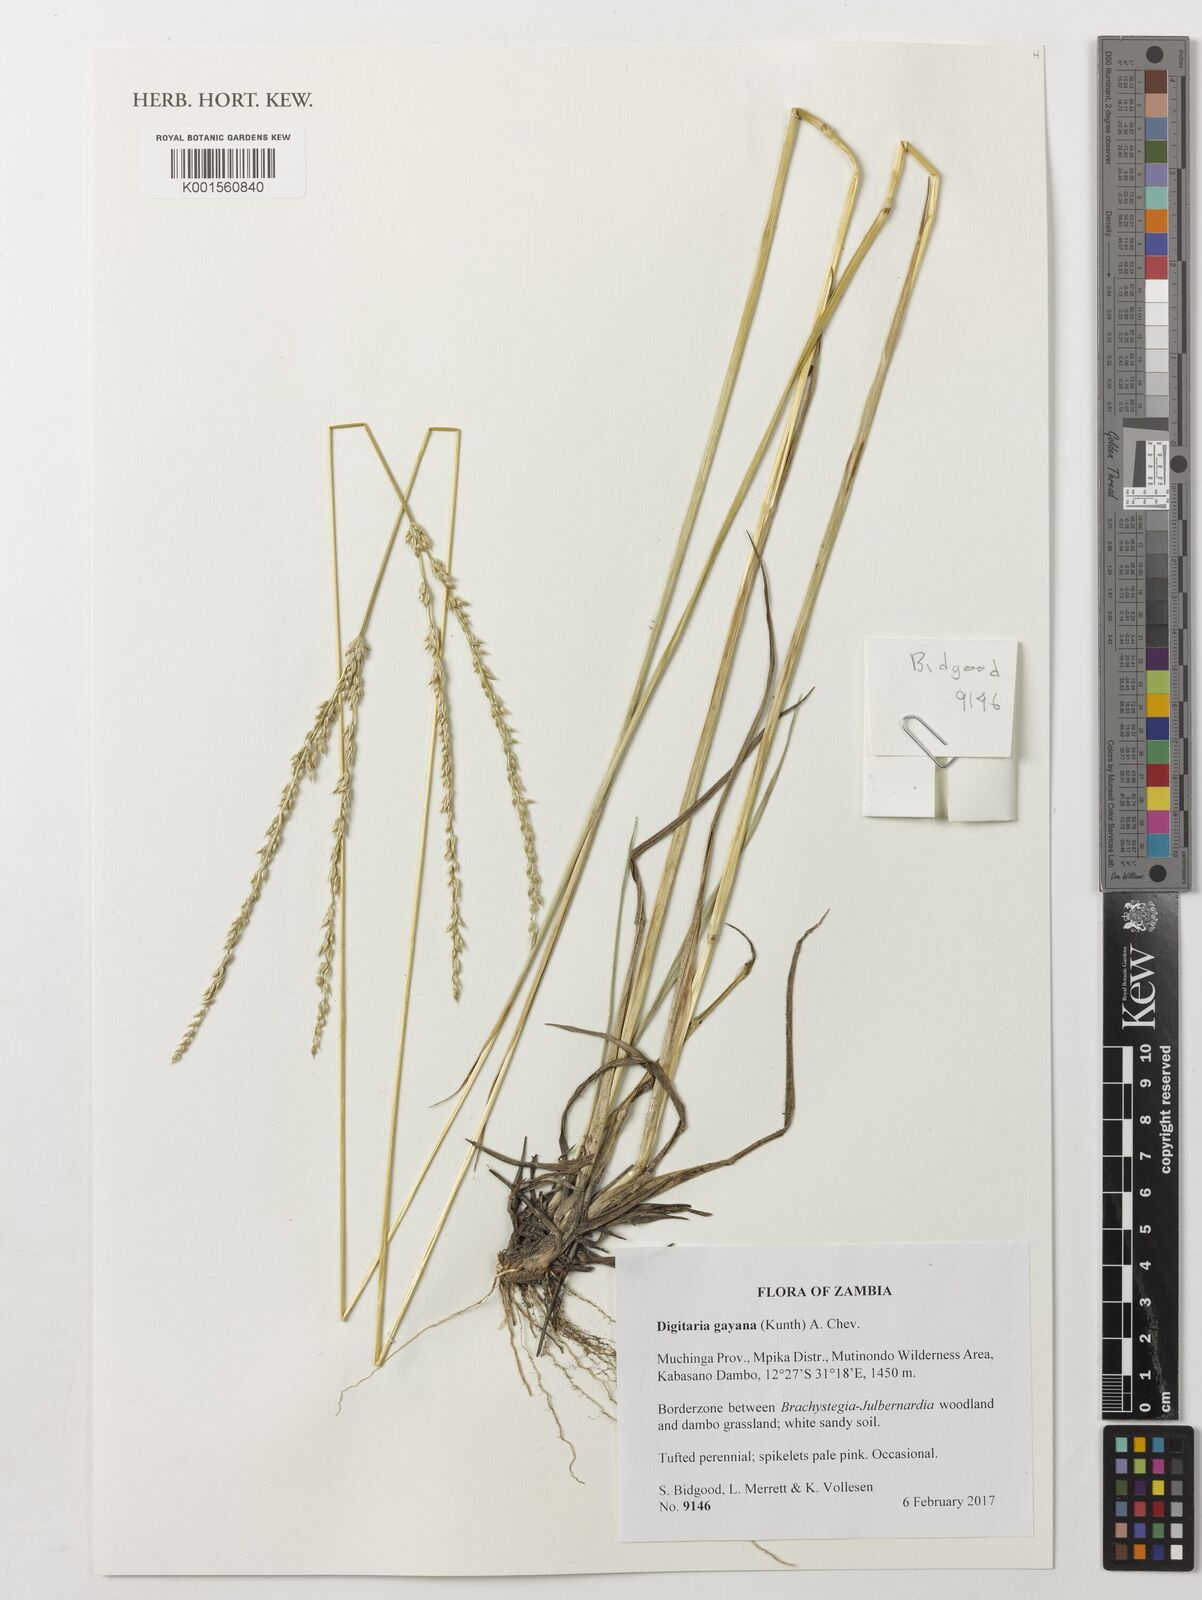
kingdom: Plantae
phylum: Tracheophyta
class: Liliopsida
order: Poales
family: Poaceae
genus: Digitaria
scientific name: Digitaria gayana
